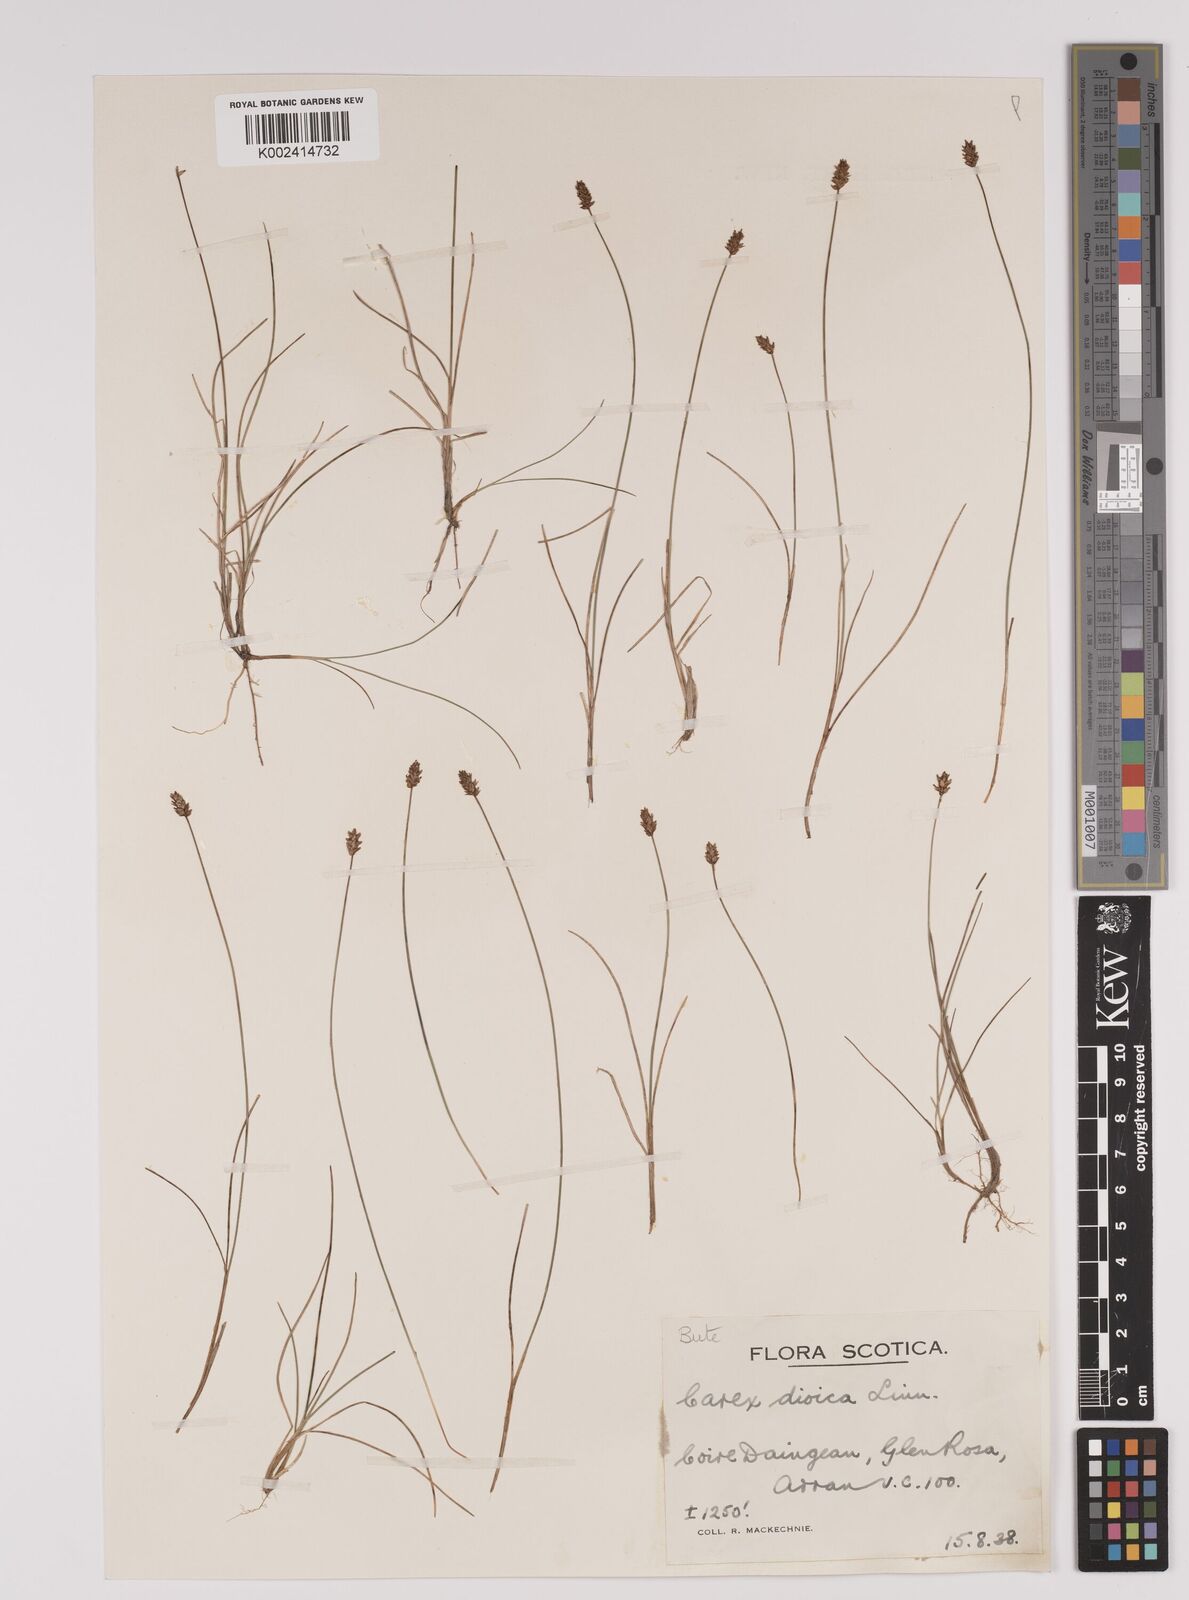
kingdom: Plantae
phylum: Tracheophyta
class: Liliopsida
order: Poales
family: Cyperaceae
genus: Carex
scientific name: Carex dioica
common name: Dioecious sedge
